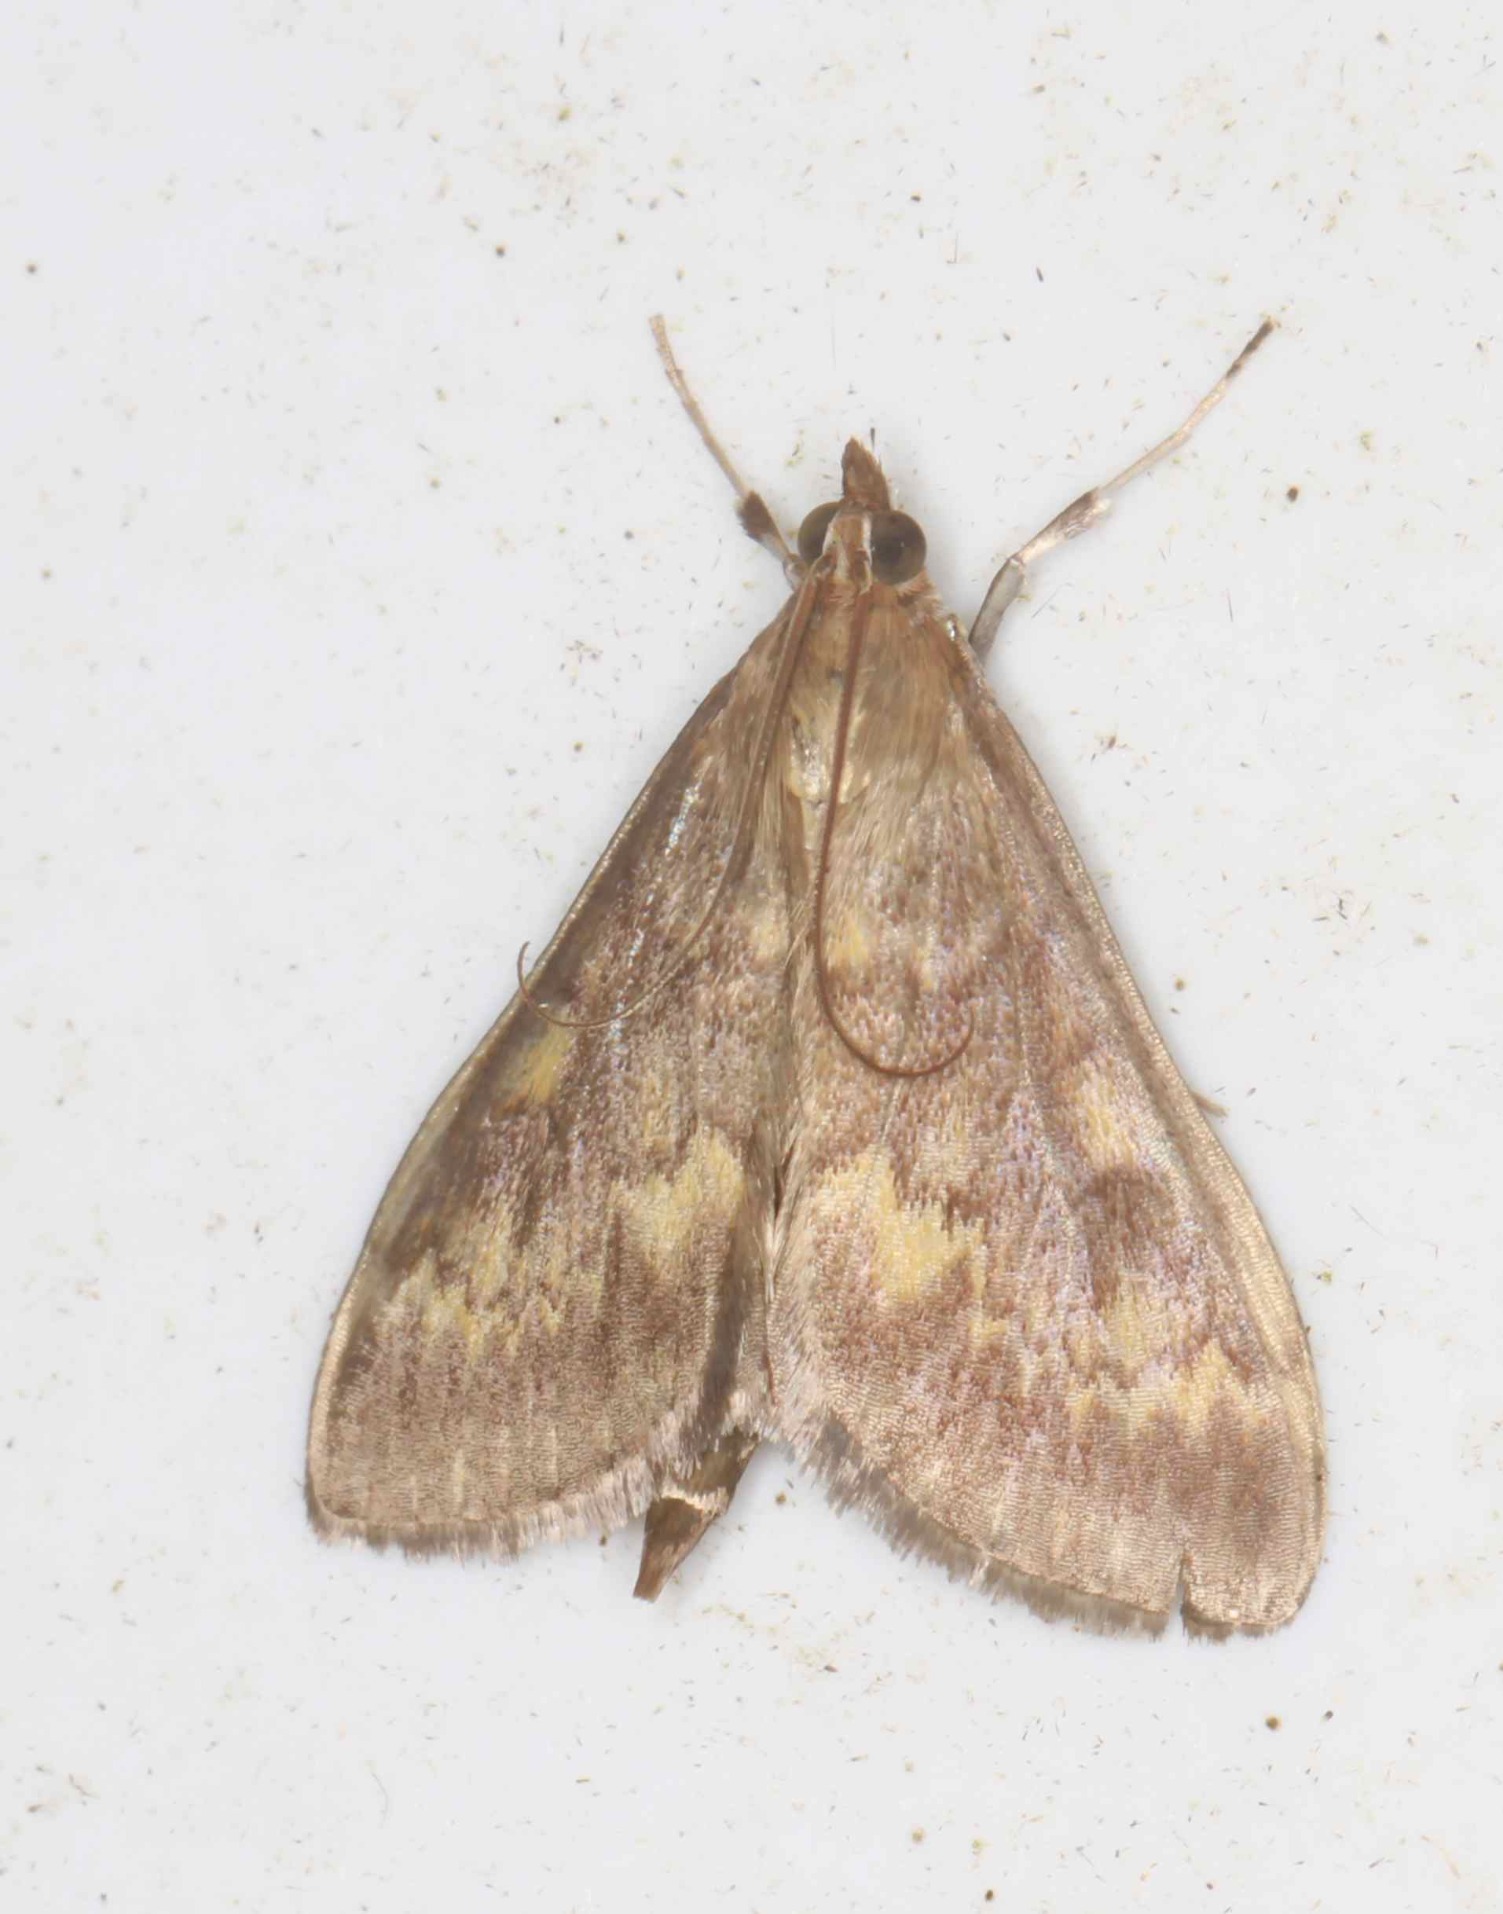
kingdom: Animalia
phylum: Arthropoda
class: Insecta
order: Lepidoptera
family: Crambidae
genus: Ostrinia
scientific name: Ostrinia nubilalis
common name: Majshalvmøl
